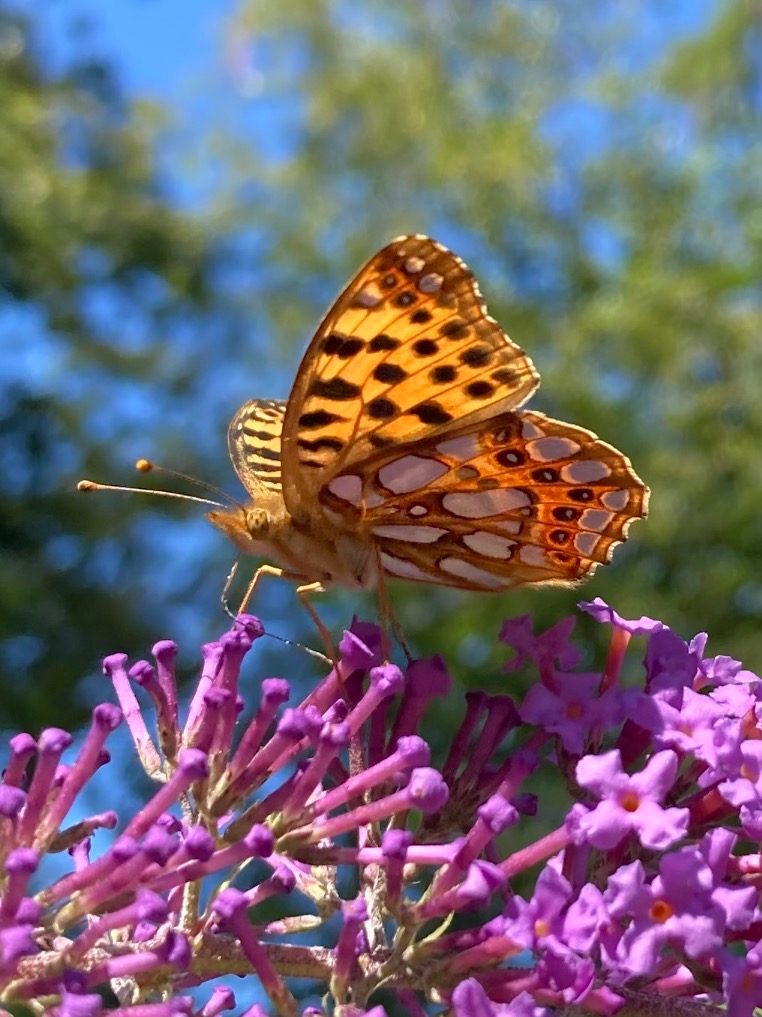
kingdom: Animalia
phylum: Arthropoda
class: Insecta
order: Lepidoptera
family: Nymphalidae
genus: Issoria
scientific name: Issoria lathonia
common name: Storplettet perlemorsommerfugl
